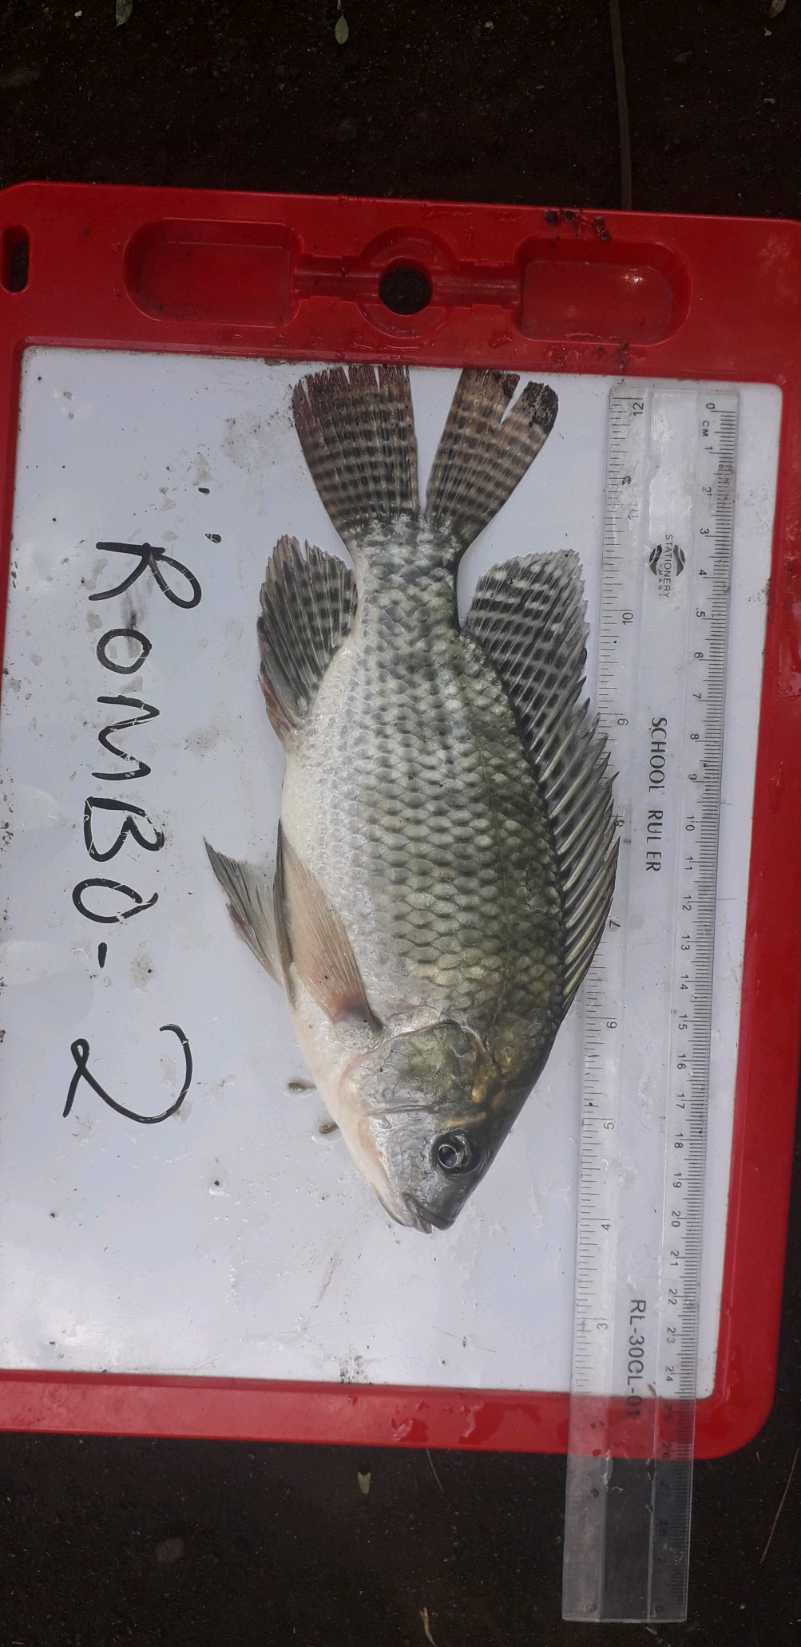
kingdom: Animalia
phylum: Chordata
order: Perciformes
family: Cichlidae
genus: Oreochromis
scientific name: Oreochromis niloticus
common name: Nile tilapia
